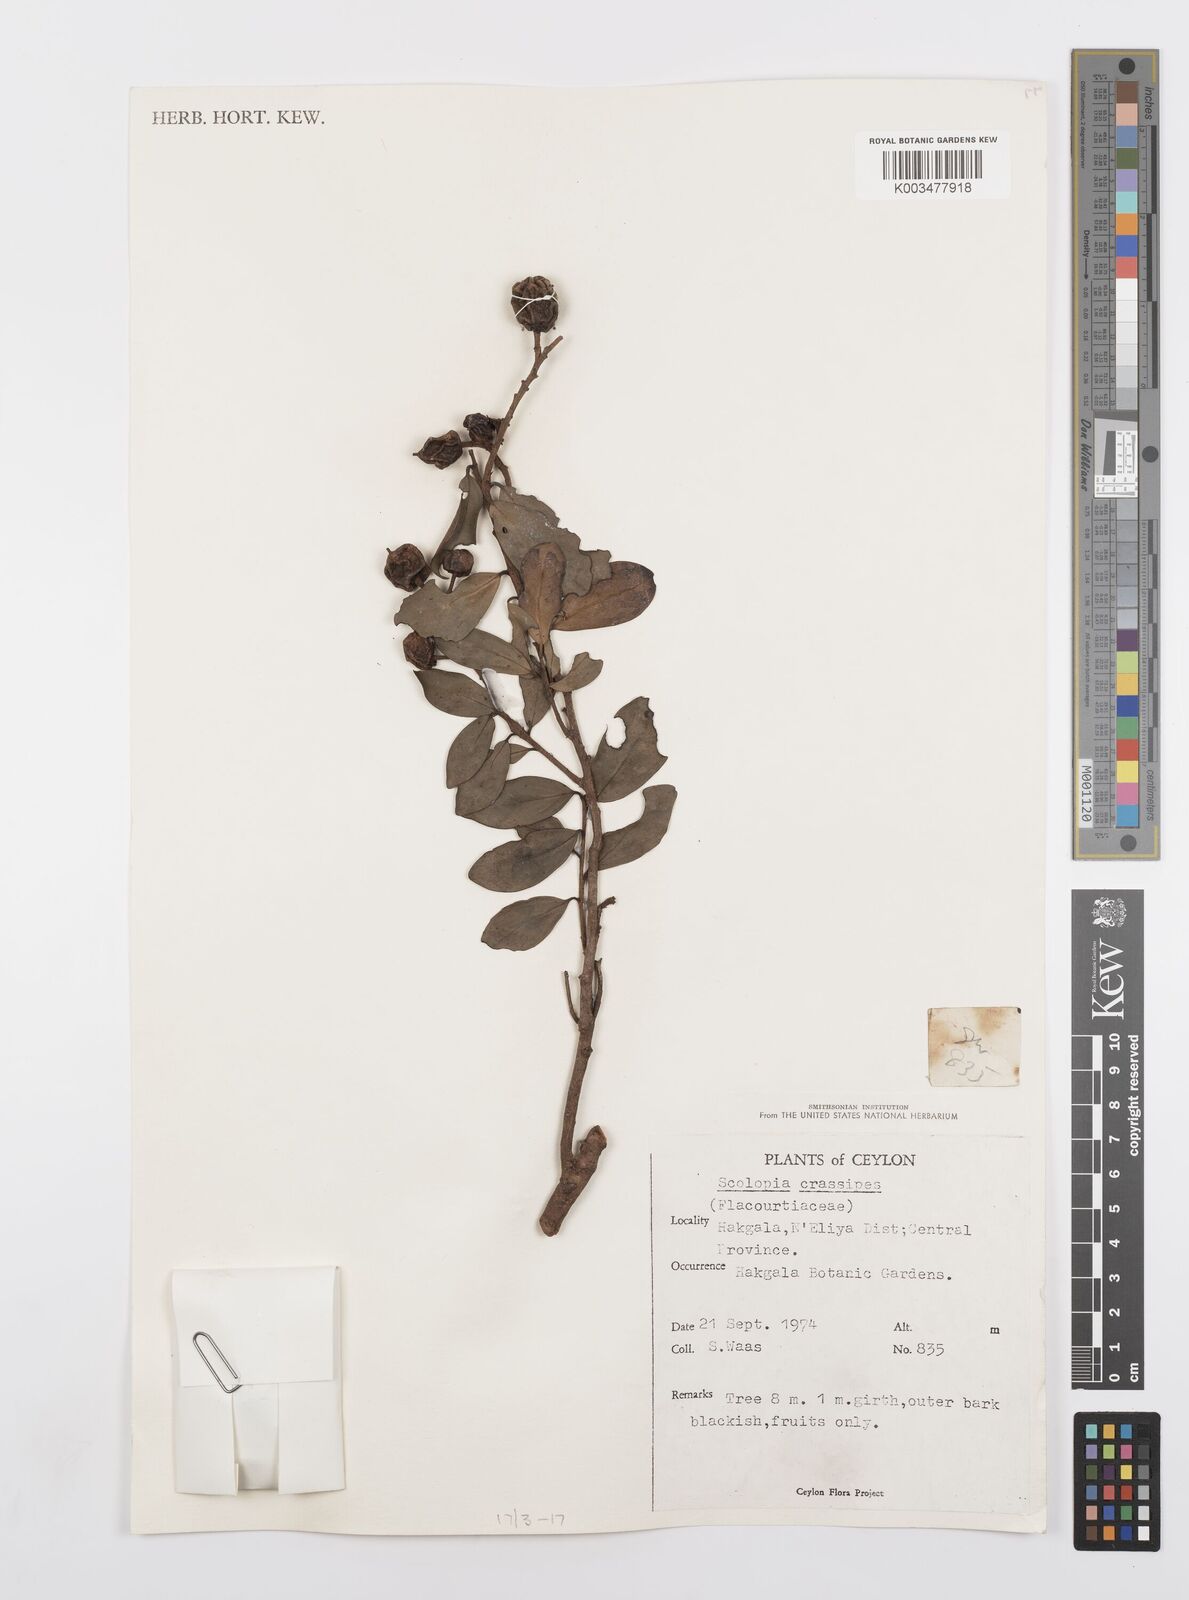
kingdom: Plantae
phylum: Tracheophyta
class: Magnoliopsida
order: Malpighiales
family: Salicaceae
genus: Scolopia
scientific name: Scolopia crassipes
